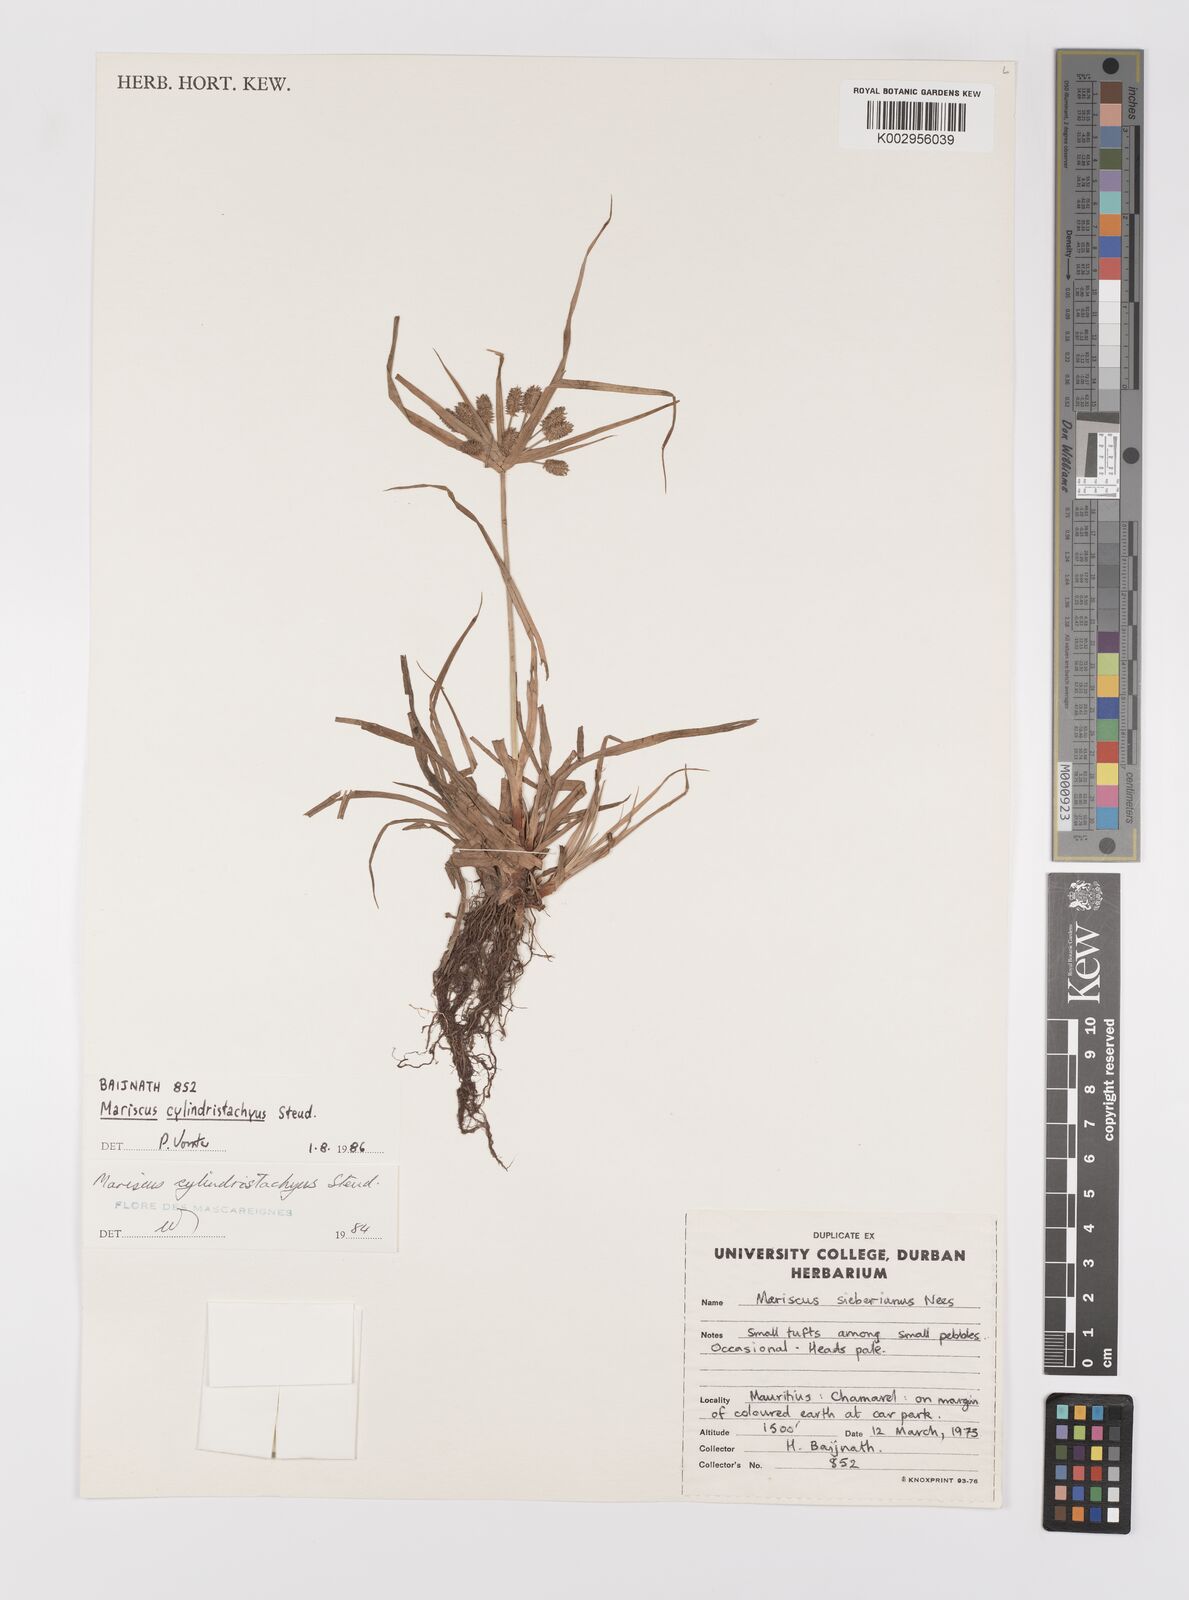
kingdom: Plantae
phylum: Tracheophyta
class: Liliopsida
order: Poales
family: Cyperaceae
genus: Cyperus
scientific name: Cyperus cyperoides
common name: Pacific island flat sedge
